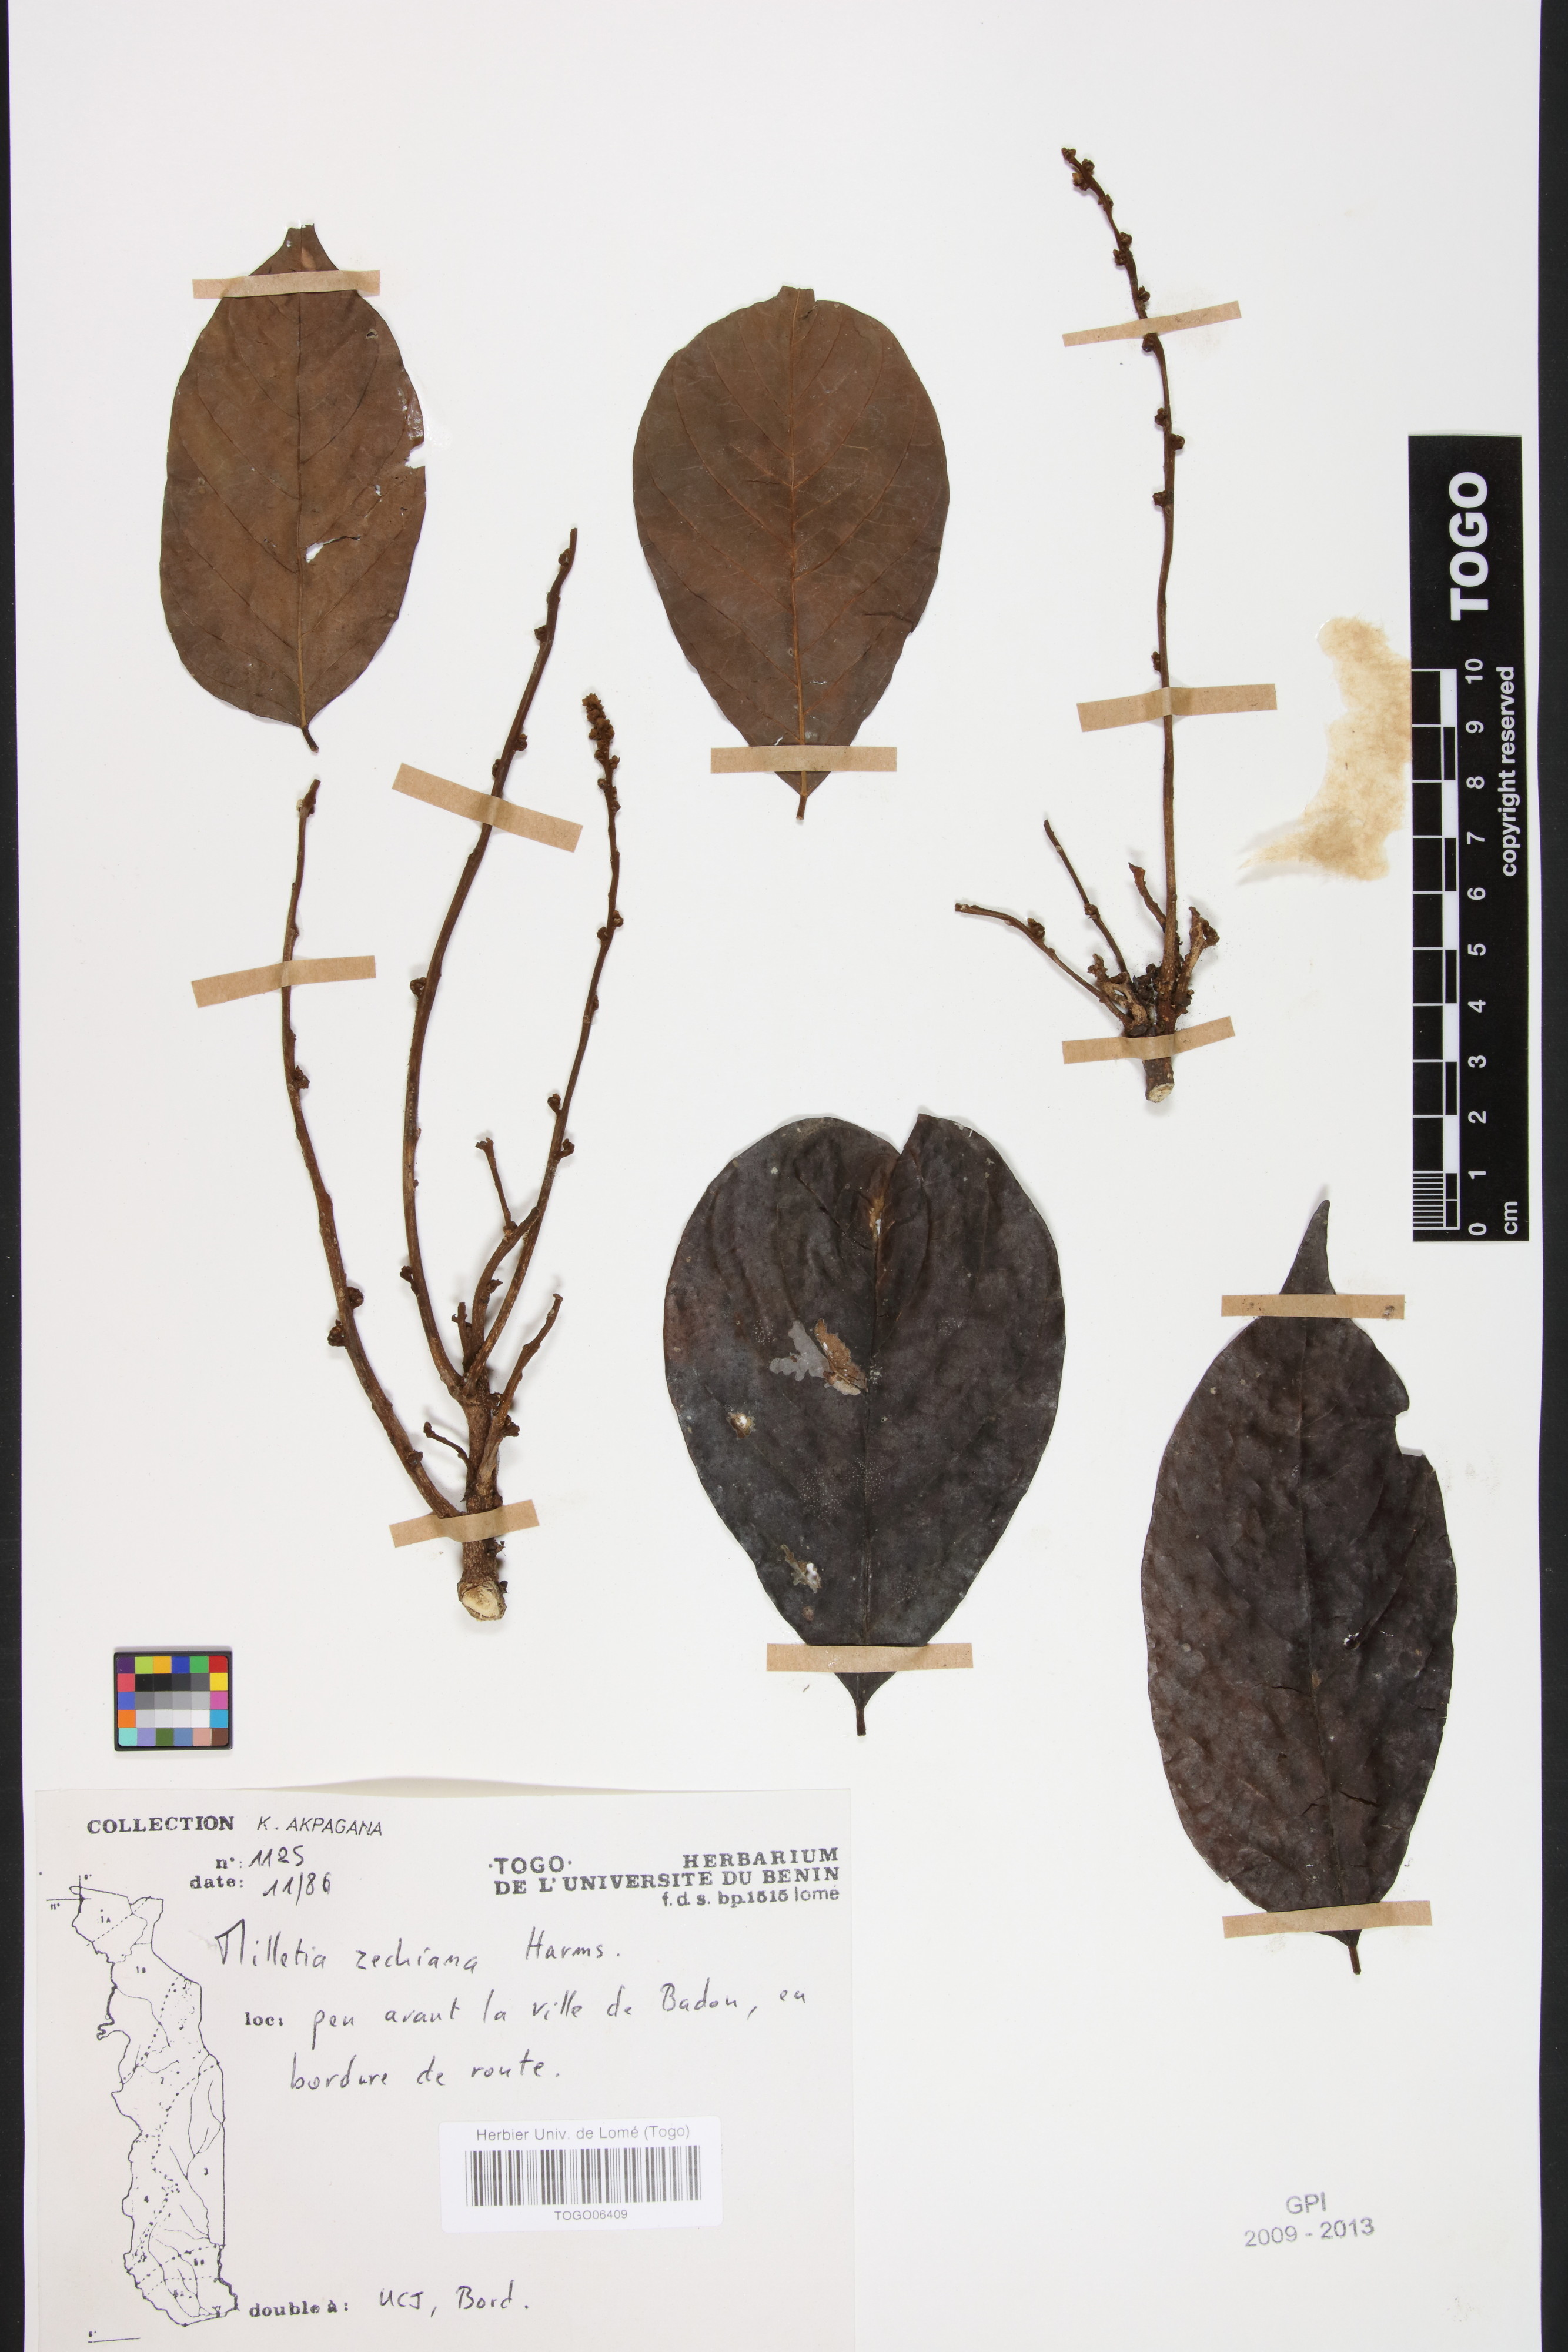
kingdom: Plantae
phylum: Tracheophyta
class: Magnoliopsida
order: Fabales
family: Fabaceae
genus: Millettia
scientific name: Millettia zechiana
